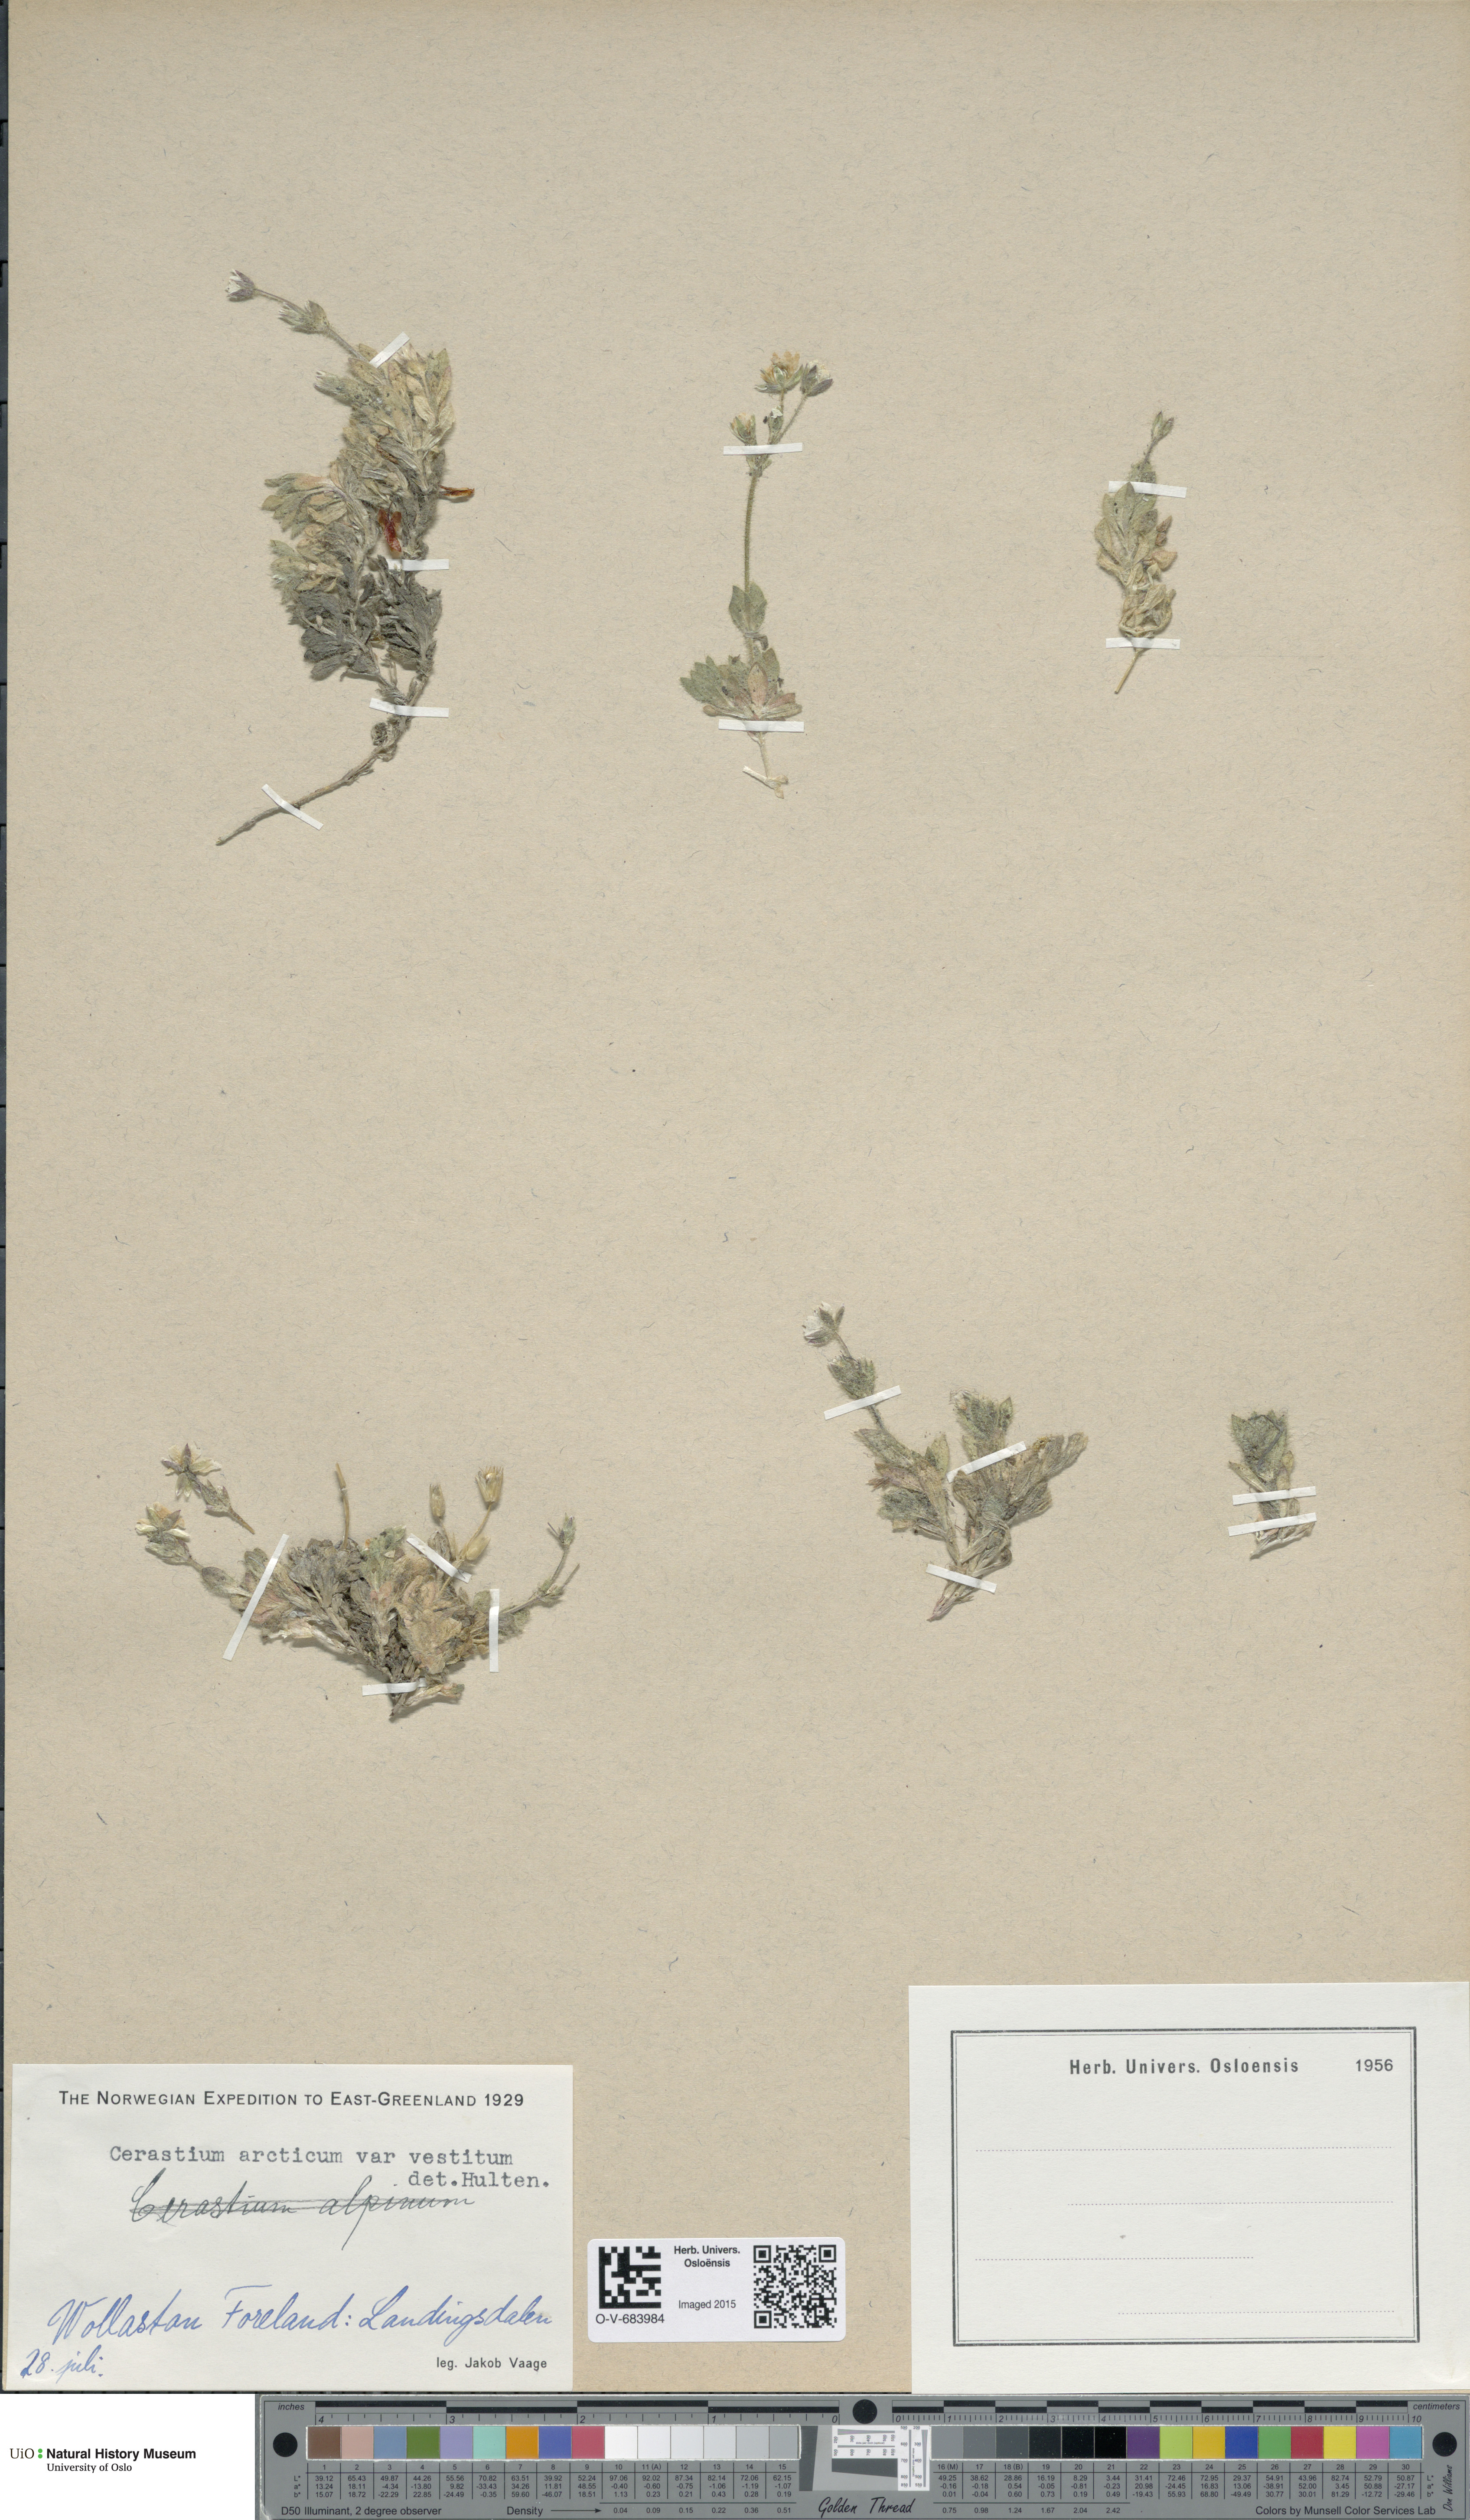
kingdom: Plantae
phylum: Tracheophyta
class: Magnoliopsida
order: Caryophyllales
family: Caryophyllaceae
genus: Cerastium
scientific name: Cerastium arcticum
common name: Arctic mouse-ear
